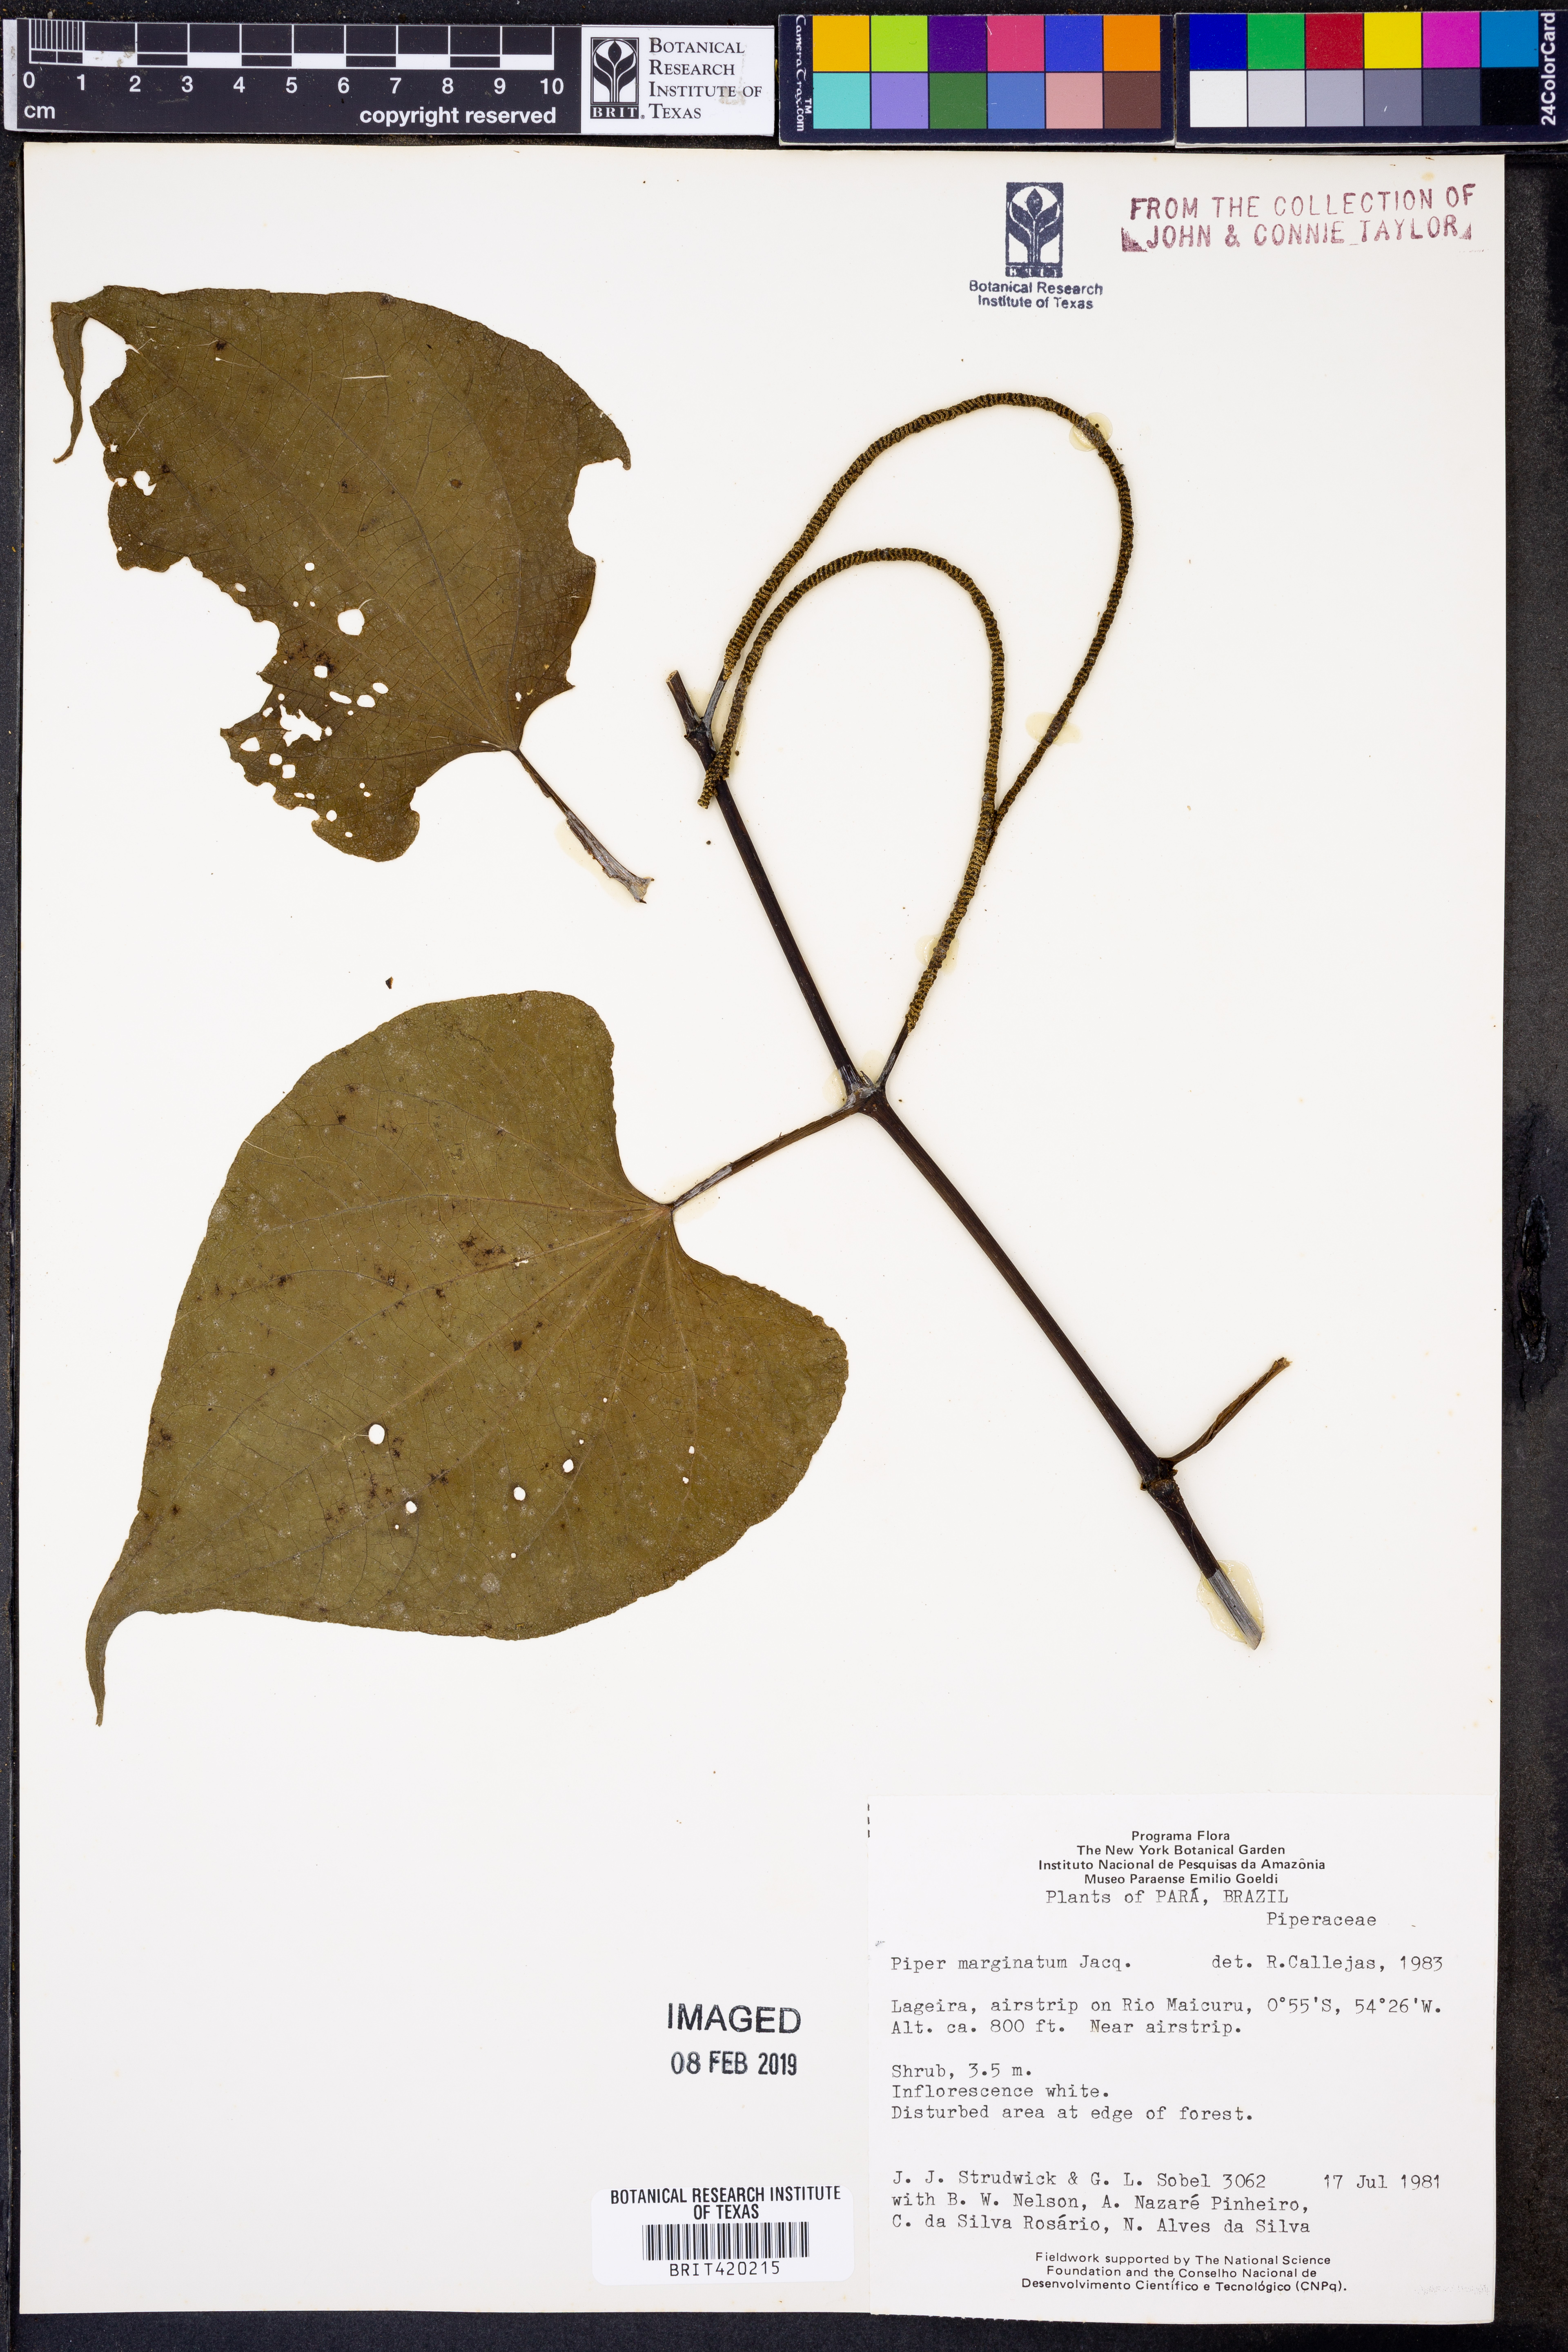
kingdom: Plantae
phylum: Tracheophyta
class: Magnoliopsida
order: Piperales
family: Piperaceae
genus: Piper
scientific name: Piper marginatum
